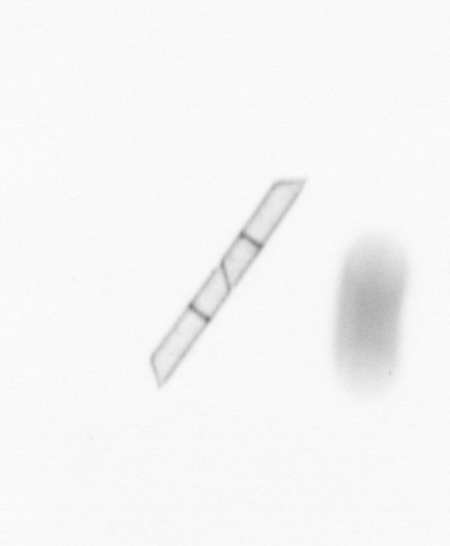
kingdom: Chromista
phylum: Ochrophyta
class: Bacillariophyceae
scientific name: Bacillariophyceae
